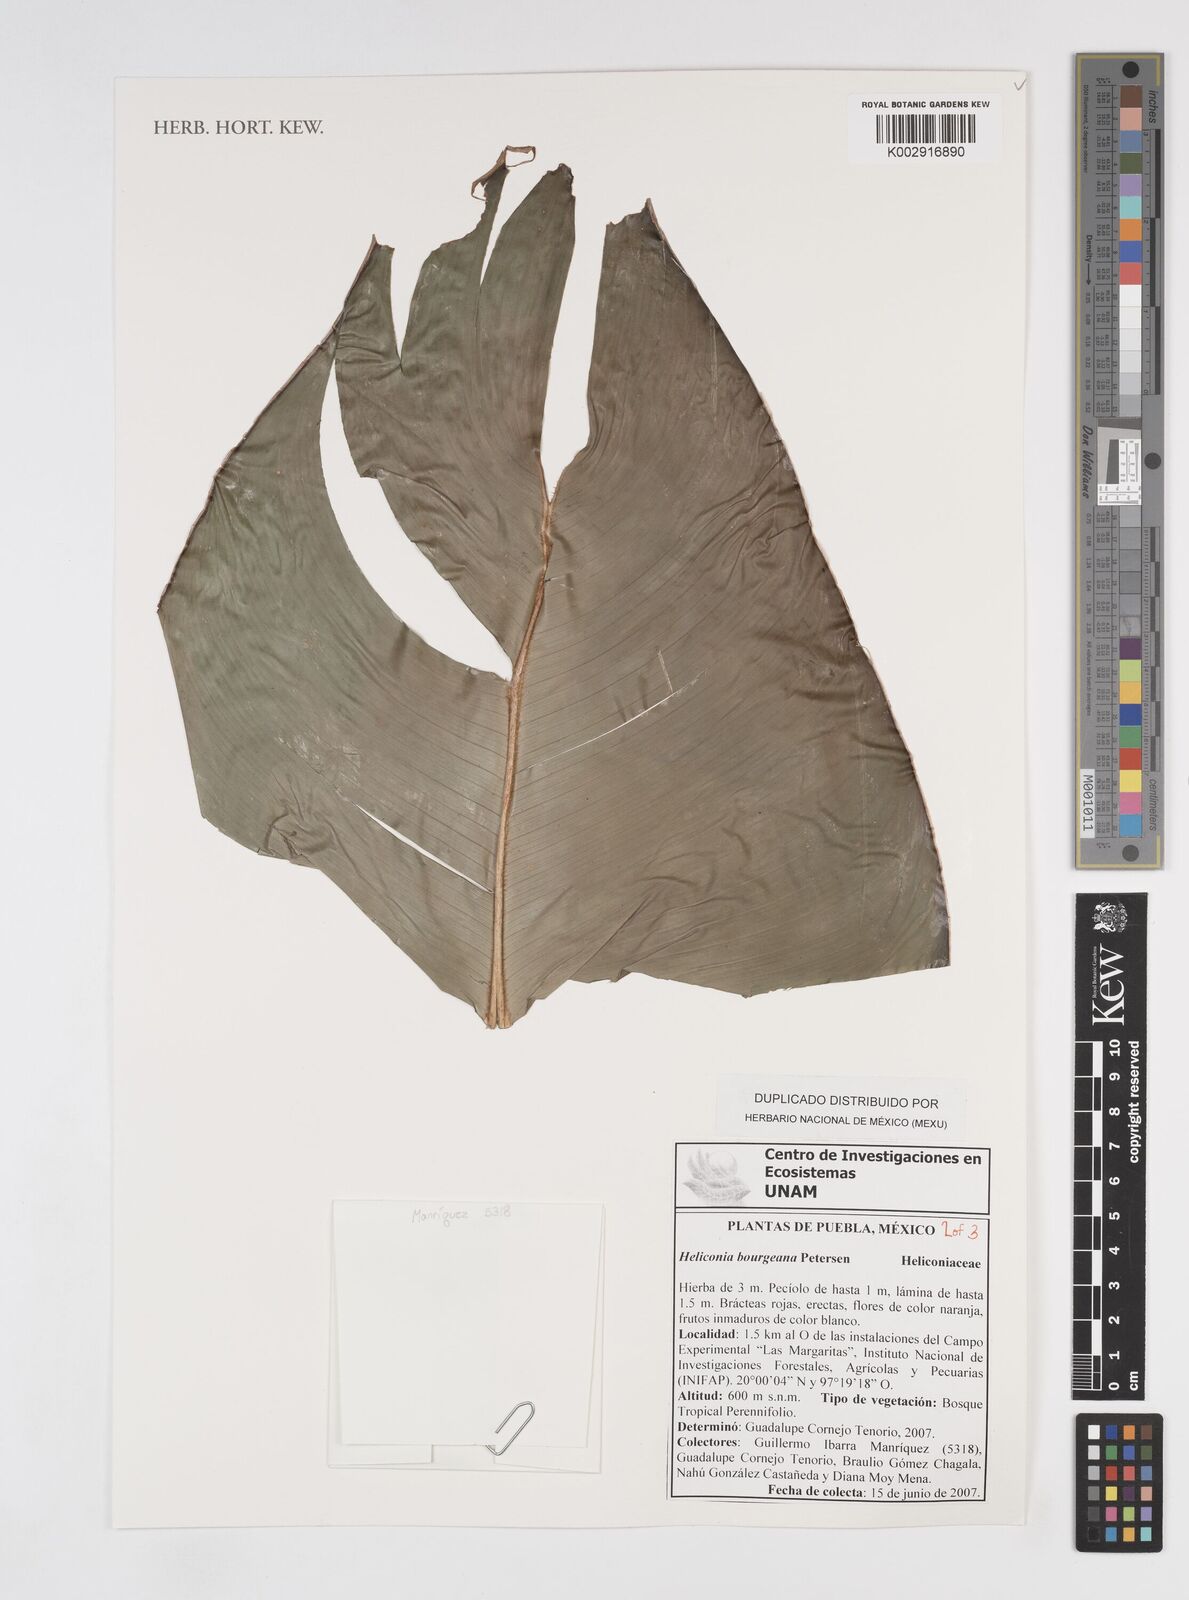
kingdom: Plantae
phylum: Tracheophyta
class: Liliopsida
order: Zingiberales
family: Heliconiaceae
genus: Heliconia
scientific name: Heliconia bourgaeana
